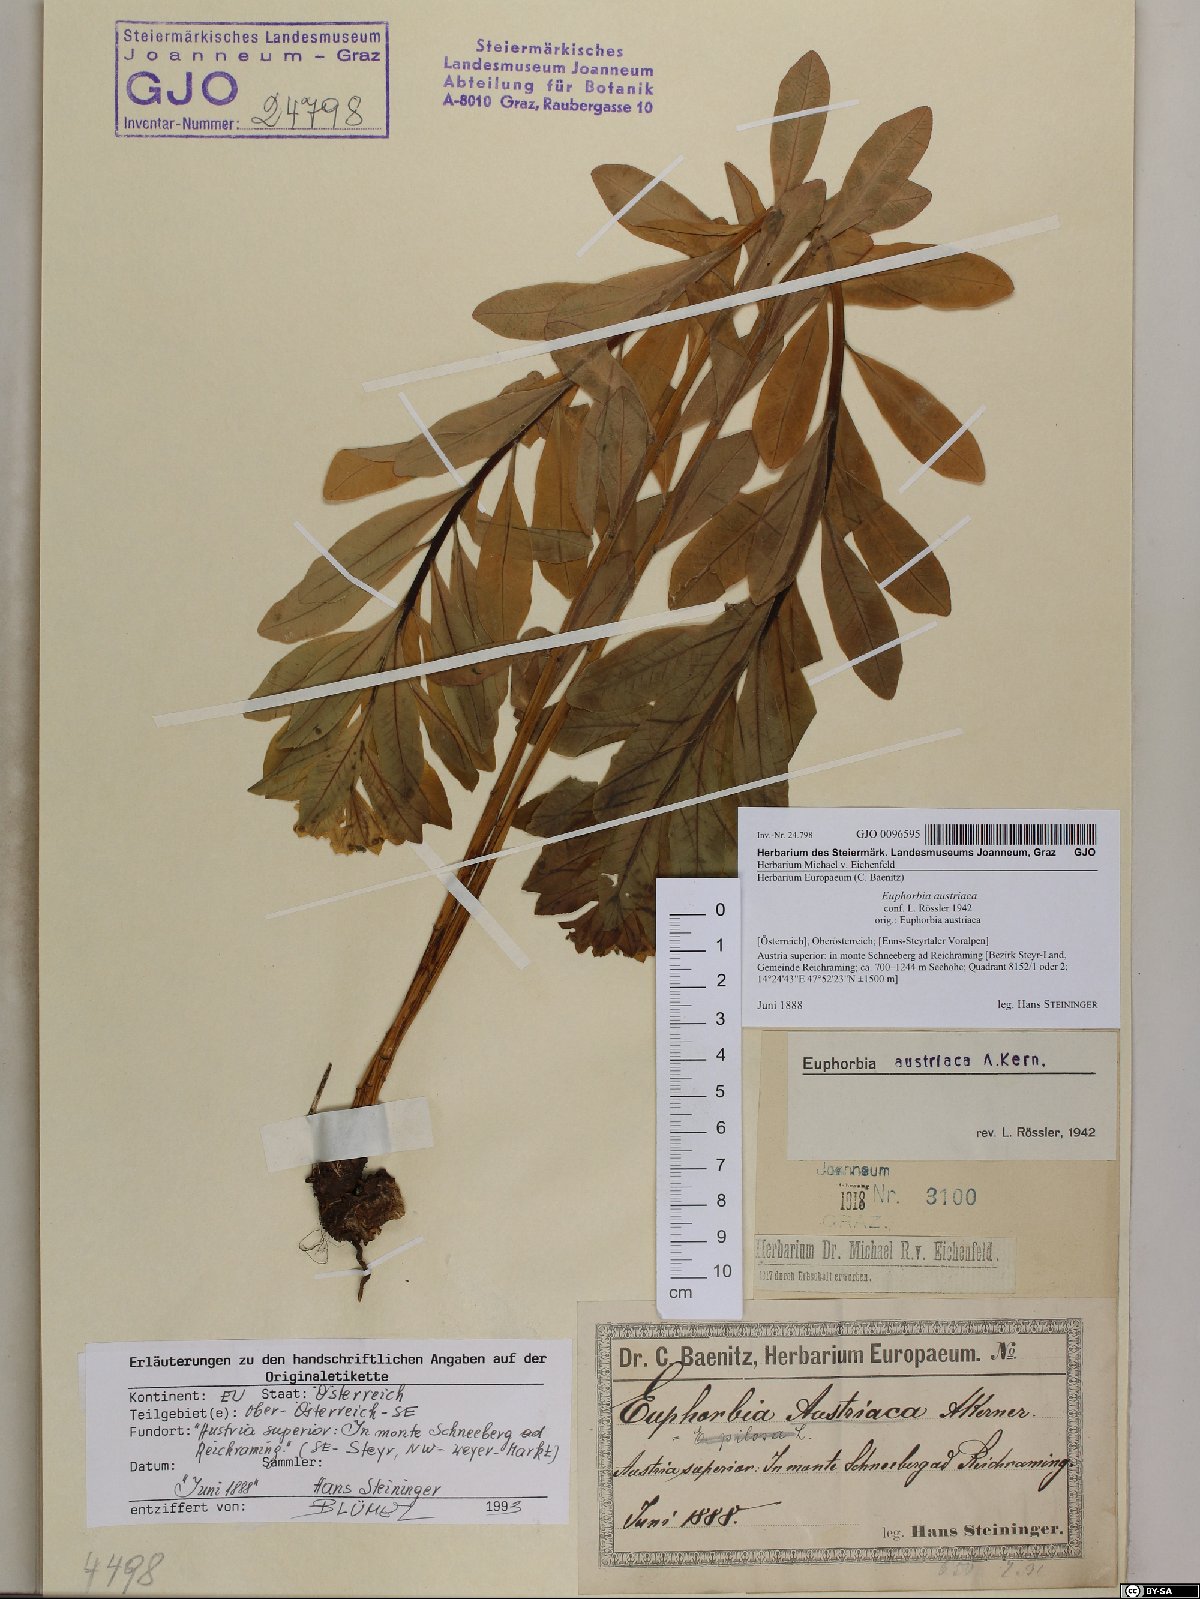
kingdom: Plantae
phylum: Tracheophyta
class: Magnoliopsida
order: Malpighiales
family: Euphorbiaceae
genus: Euphorbia
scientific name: Euphorbia austriaca
